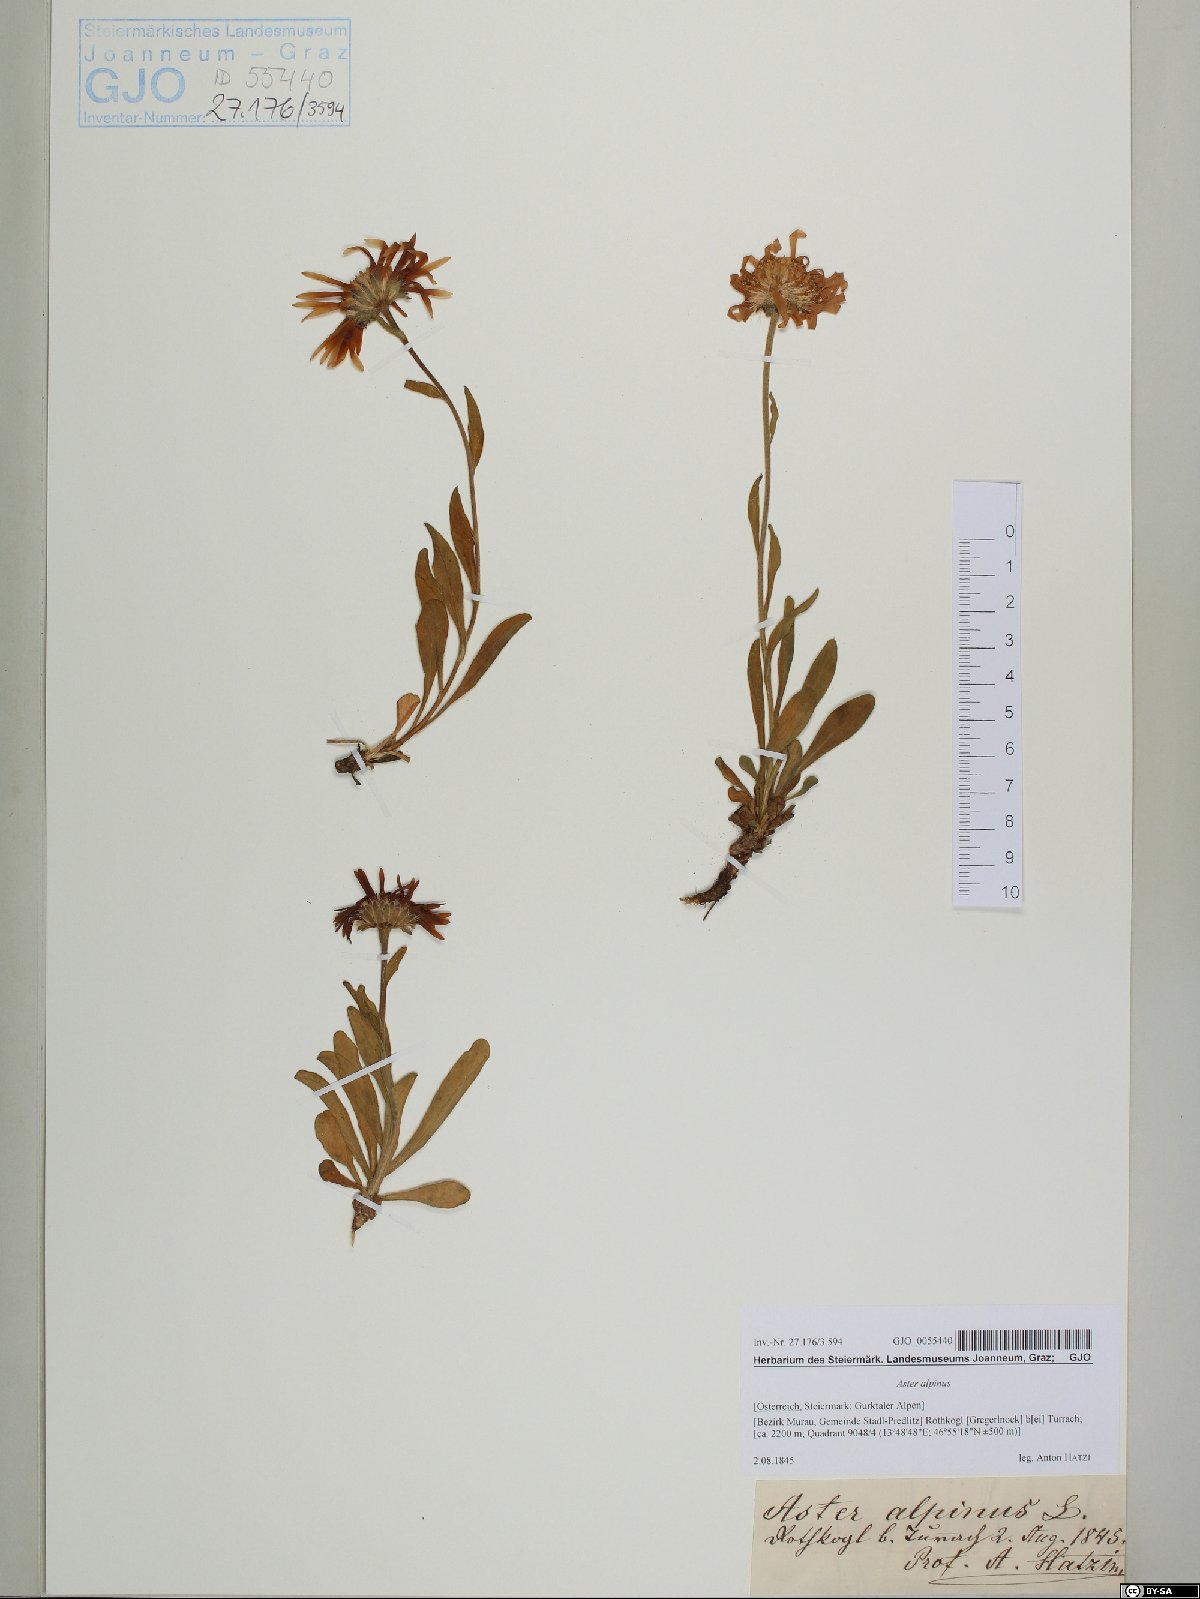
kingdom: Plantae
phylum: Tracheophyta
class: Magnoliopsida
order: Asterales
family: Asteraceae
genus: Aster
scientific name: Aster alpinus
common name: Alpine aster
